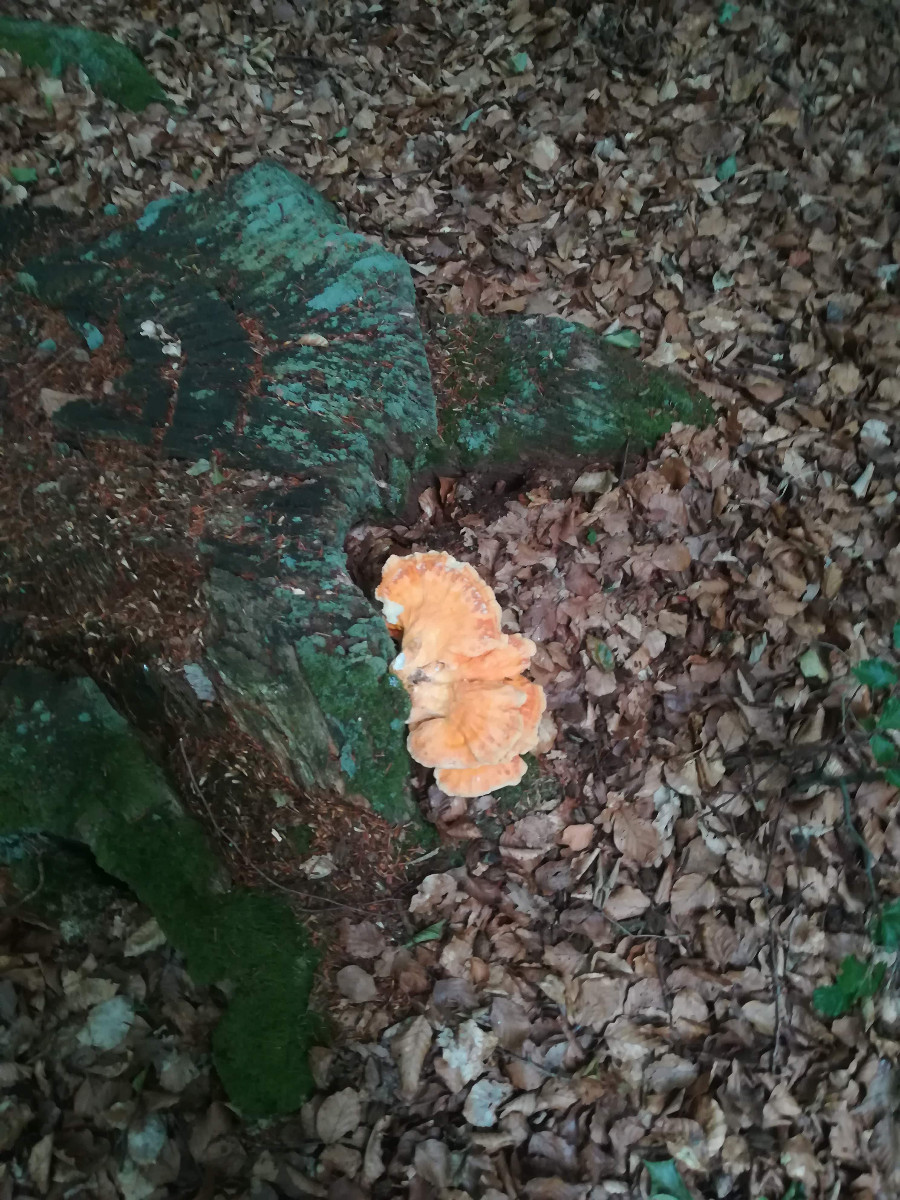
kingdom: Fungi
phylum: Basidiomycota
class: Agaricomycetes
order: Polyporales
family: Laetiporaceae
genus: Laetiporus
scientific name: Laetiporus sulphureus
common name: svovlporesvamp
